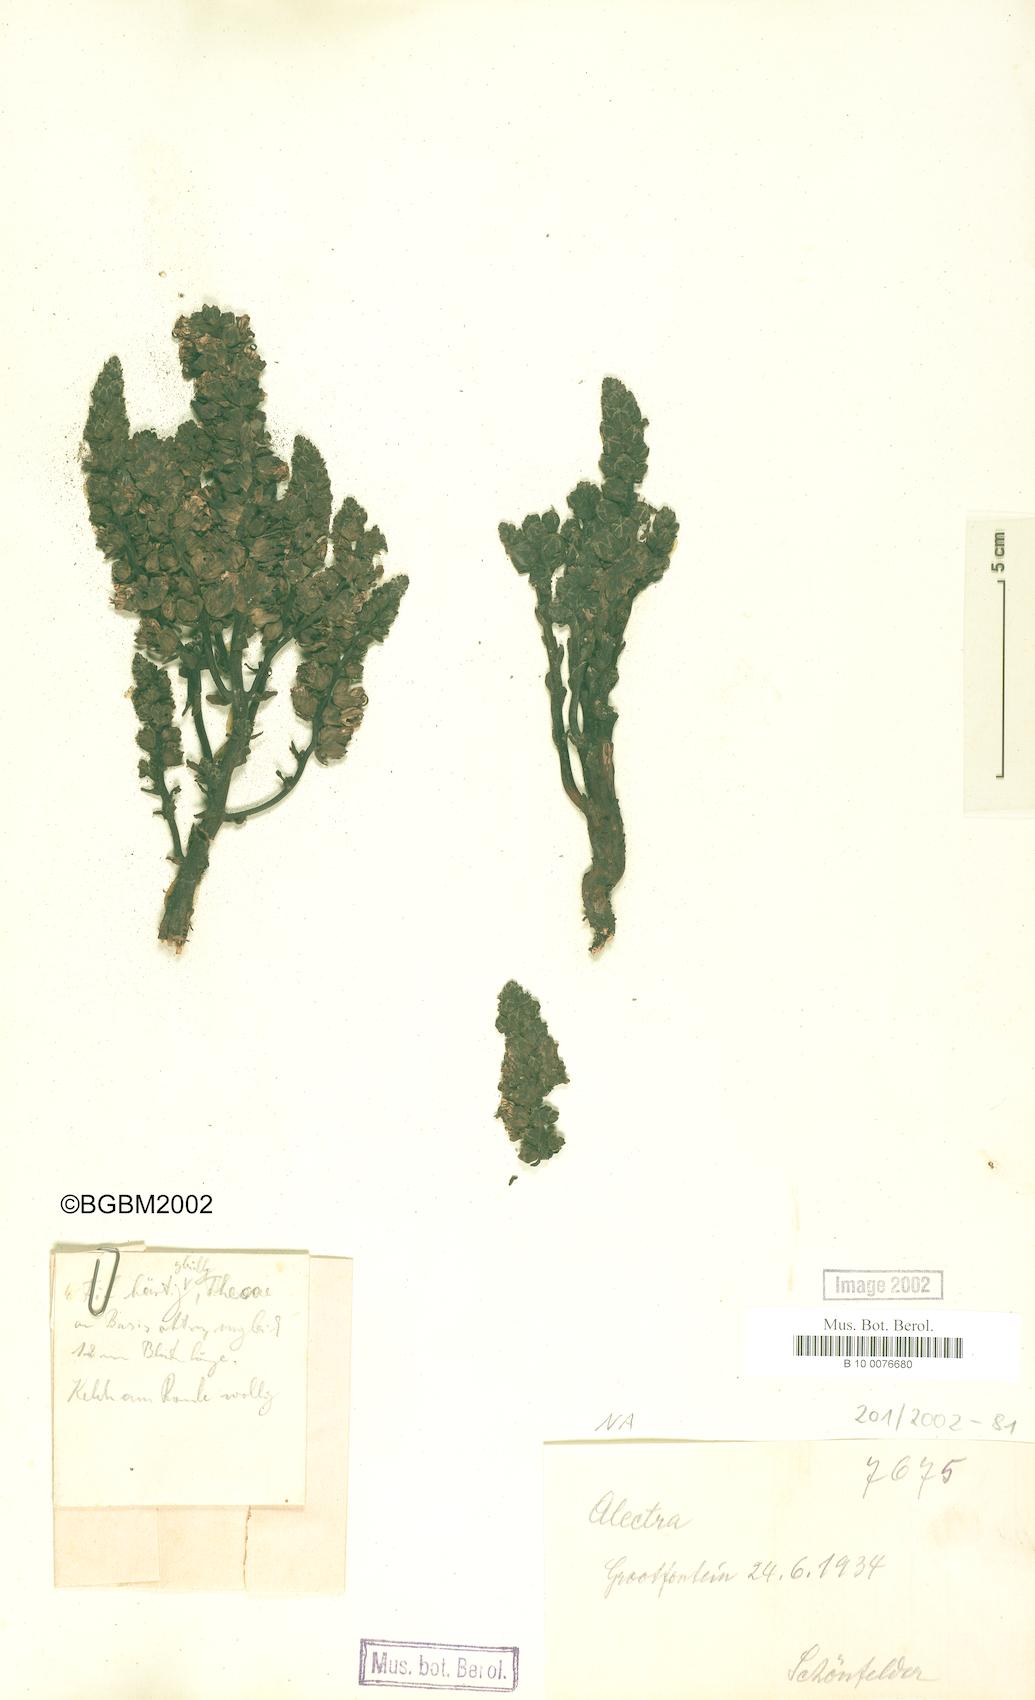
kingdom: Plantae
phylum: Tracheophyta
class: Magnoliopsida
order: Lamiales
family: Orobanchaceae
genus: Alectra
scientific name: Alectra
